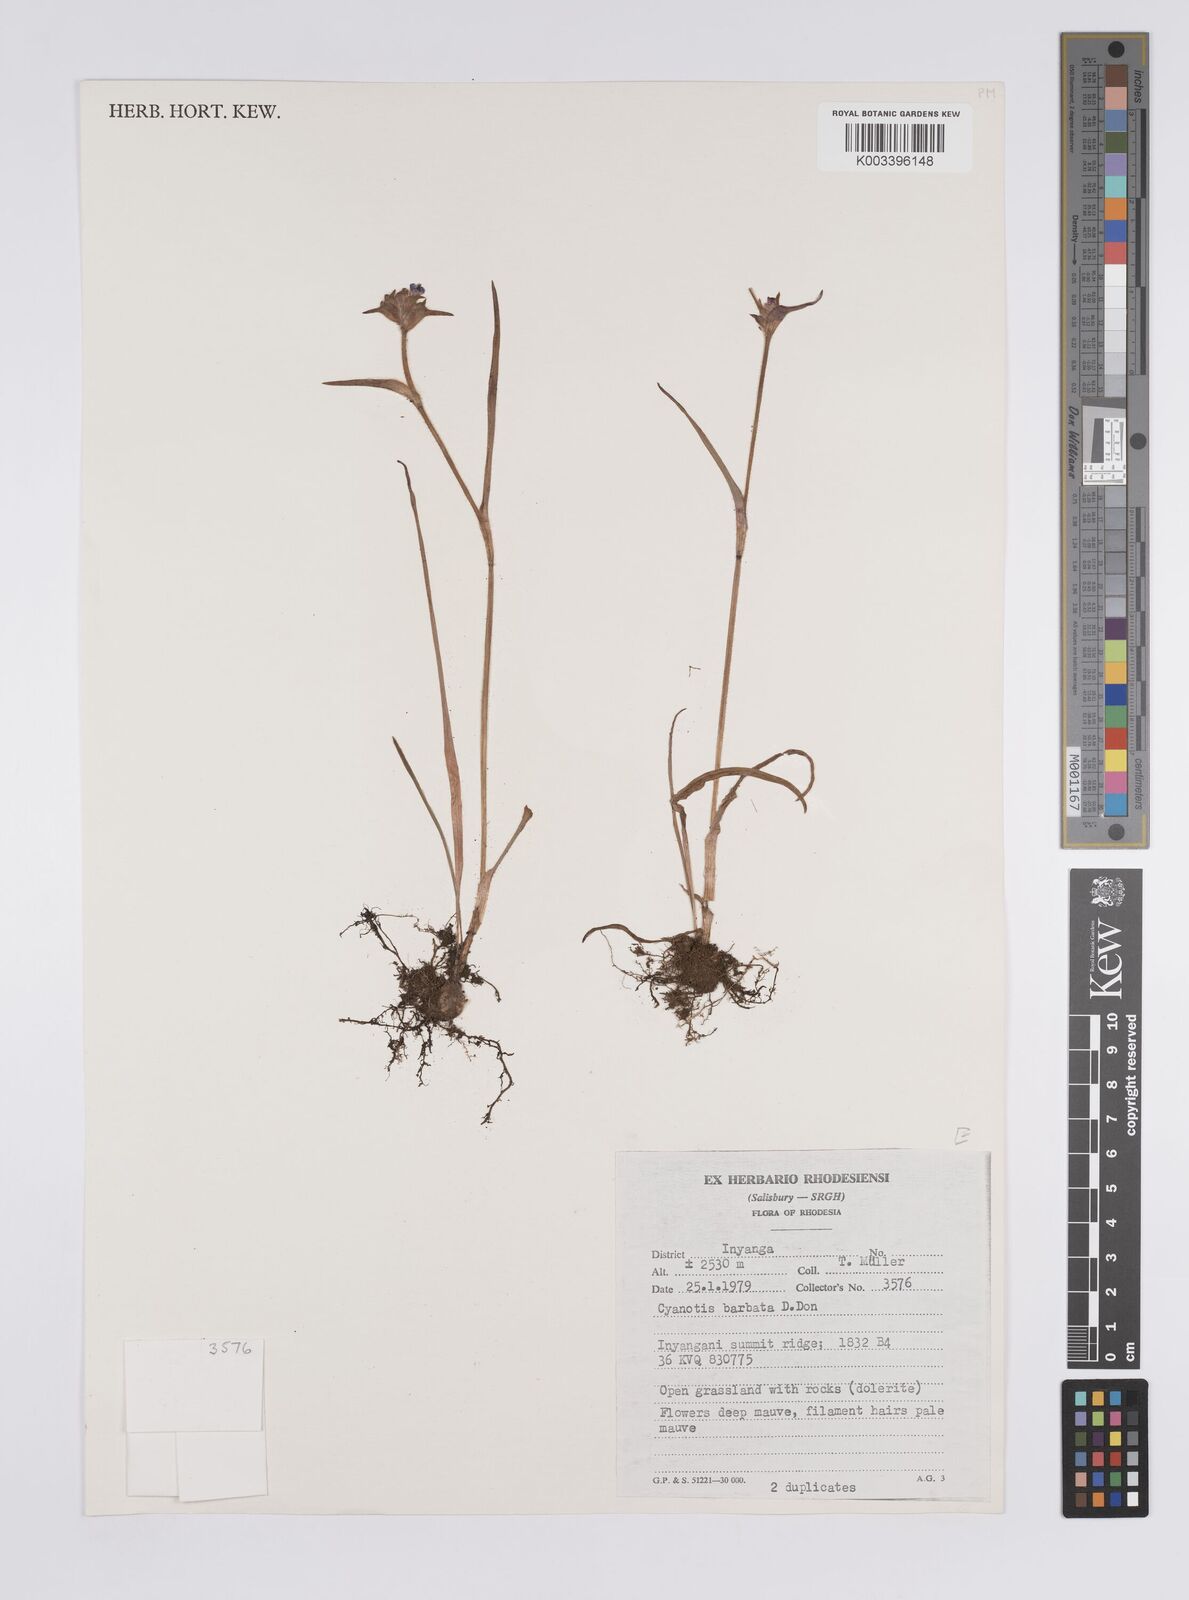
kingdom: Plantae
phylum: Tracheophyta
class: Liliopsida
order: Commelinales
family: Commelinaceae
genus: Cyanotis
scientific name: Cyanotis vaga
